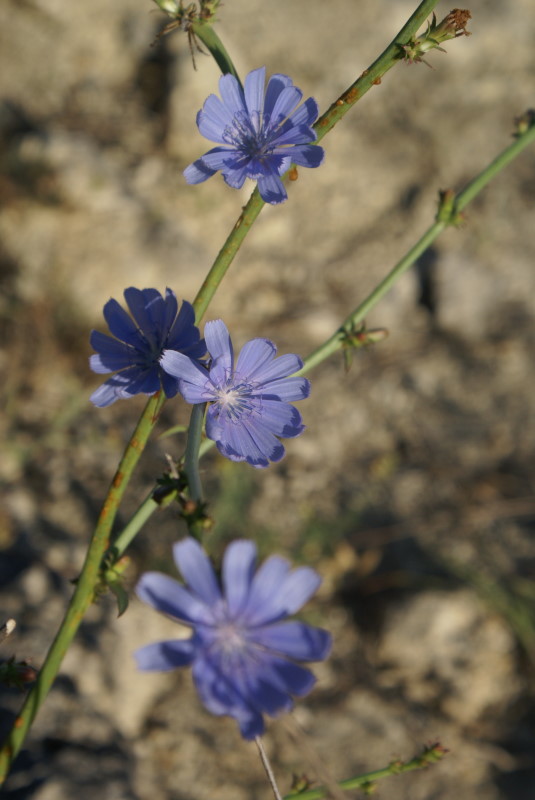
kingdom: Plantae
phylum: Tracheophyta
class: Magnoliopsida
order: Asterales
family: Asteraceae
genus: Cichorium
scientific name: Cichorium intybus
